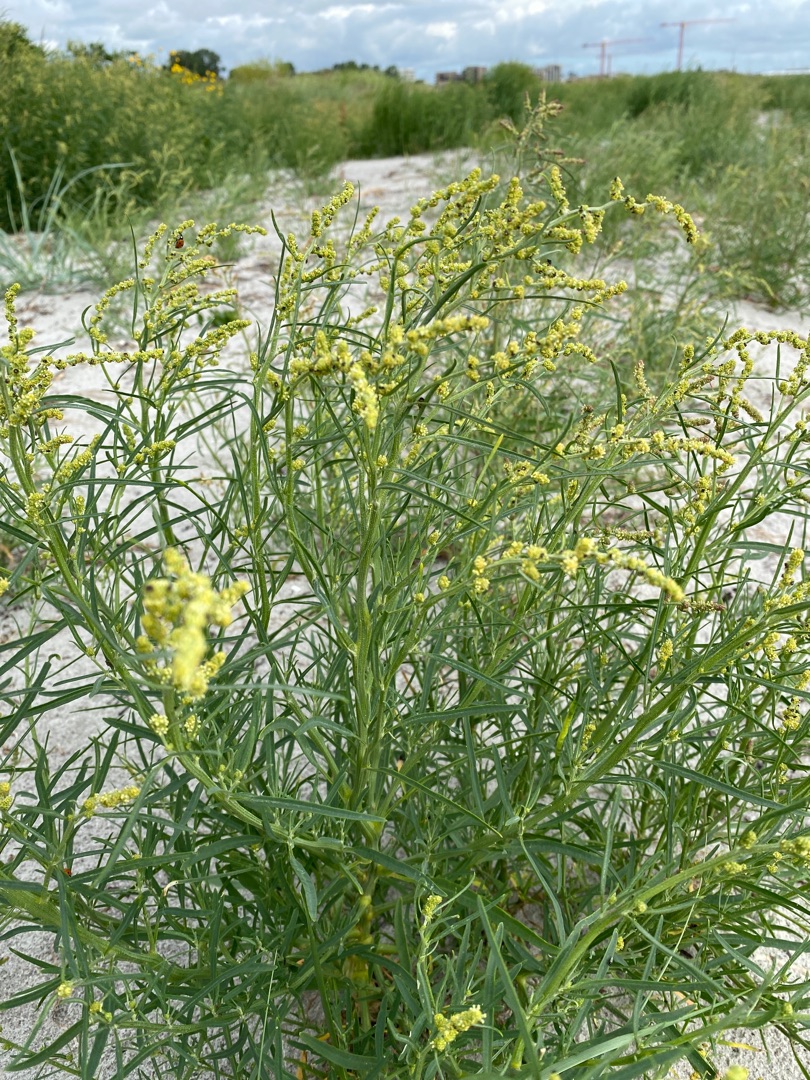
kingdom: Plantae
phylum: Tracheophyta
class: Magnoliopsida
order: Caryophyllales
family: Amaranthaceae
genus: Atriplex
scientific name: Atriplex littoralis
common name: Strand-mælde
